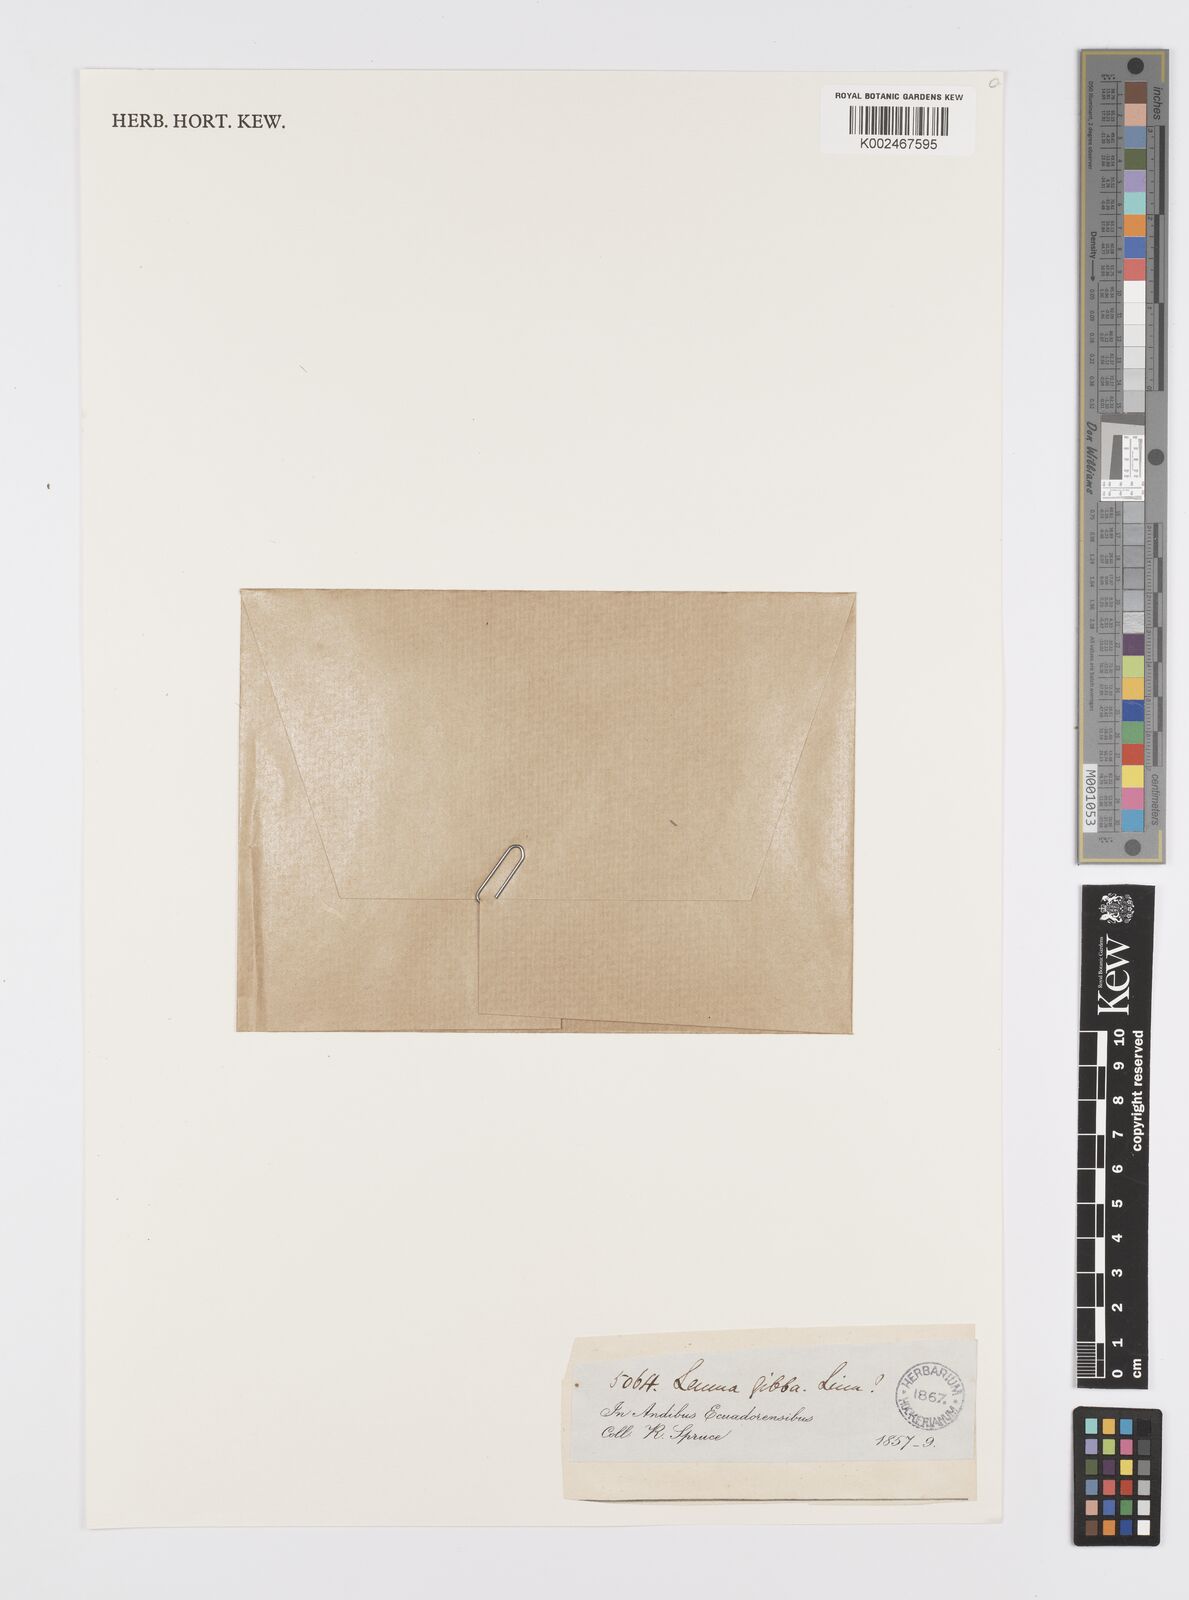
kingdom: Plantae
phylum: Tracheophyta
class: Liliopsida
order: Alismatales
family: Araceae
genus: Spirodela
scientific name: Spirodela polyrhiza
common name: Great duckweed
